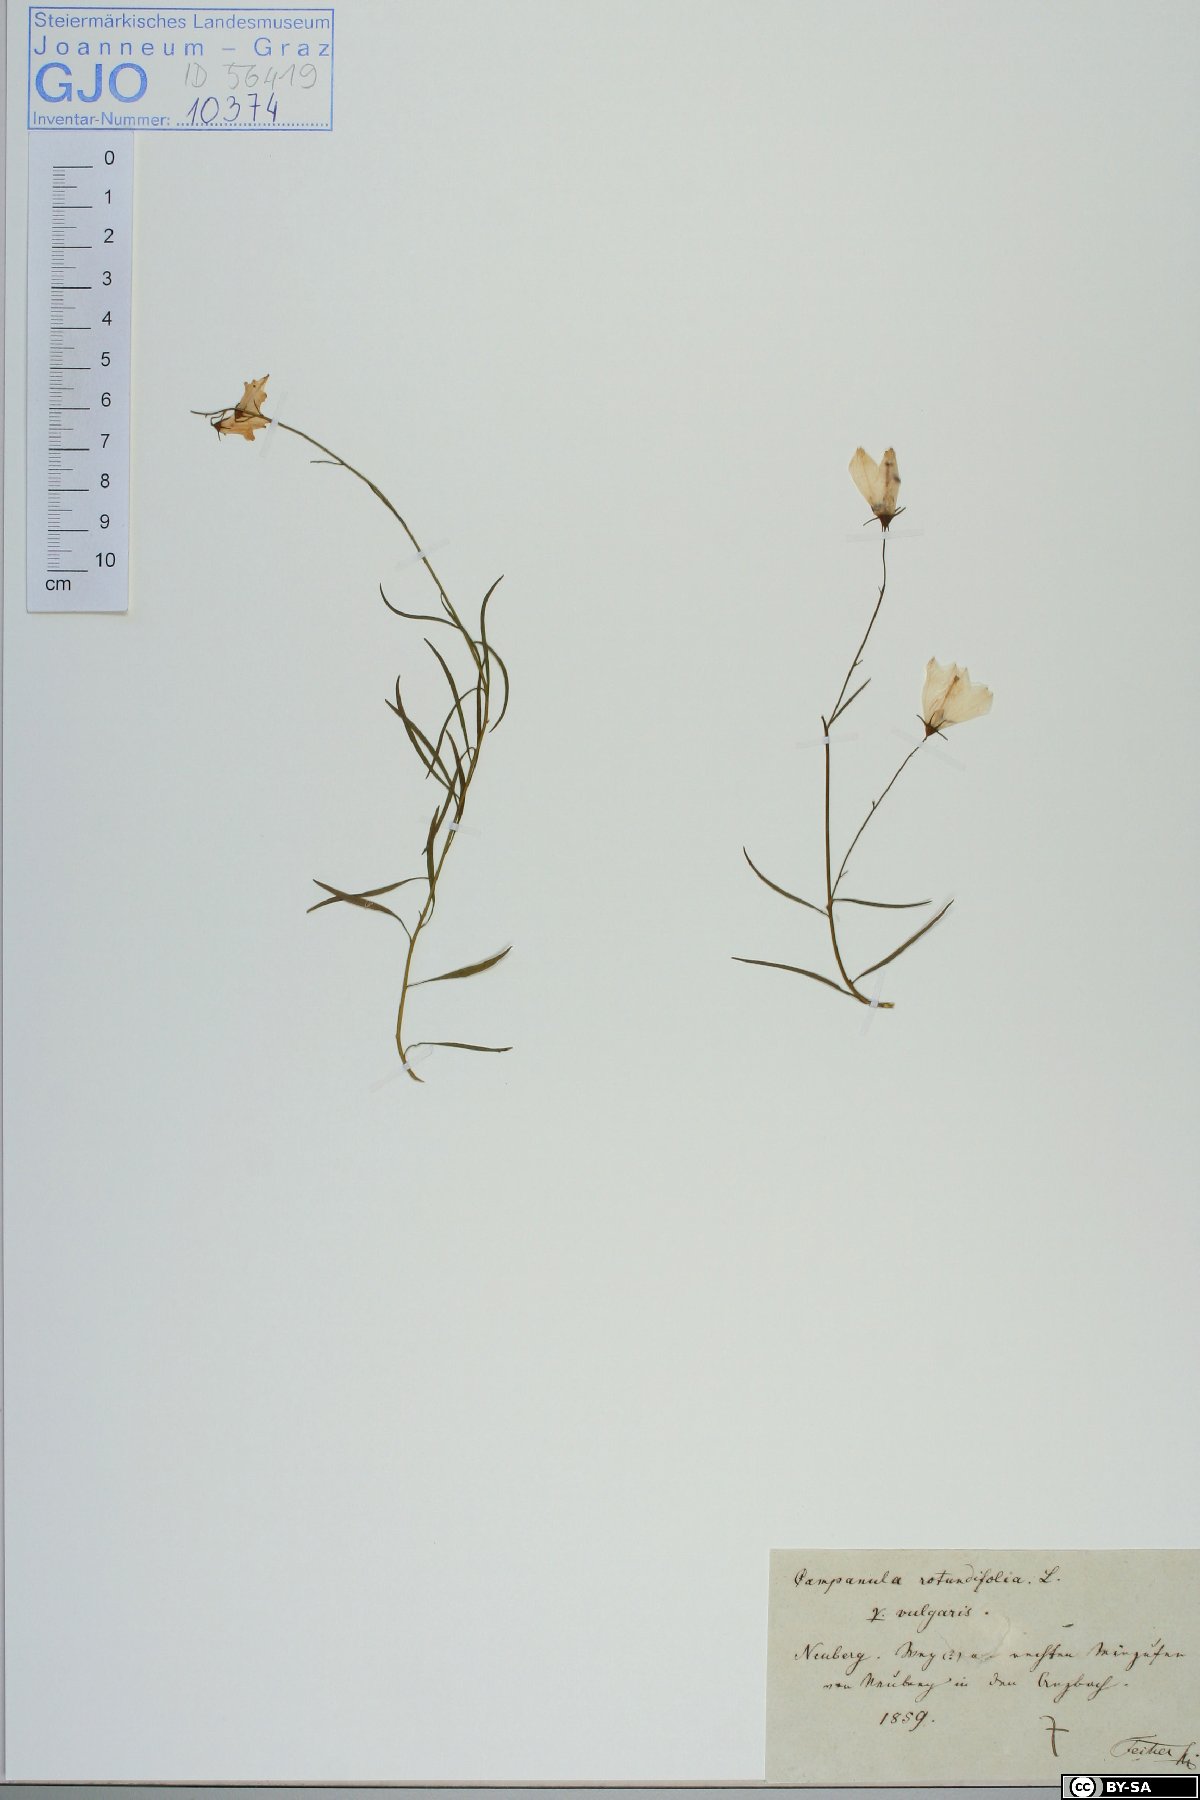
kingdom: Plantae
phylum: Tracheophyta
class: Magnoliopsida
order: Asterales
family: Campanulaceae
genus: Campanula
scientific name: Campanula rotundifolia
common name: Harebell
